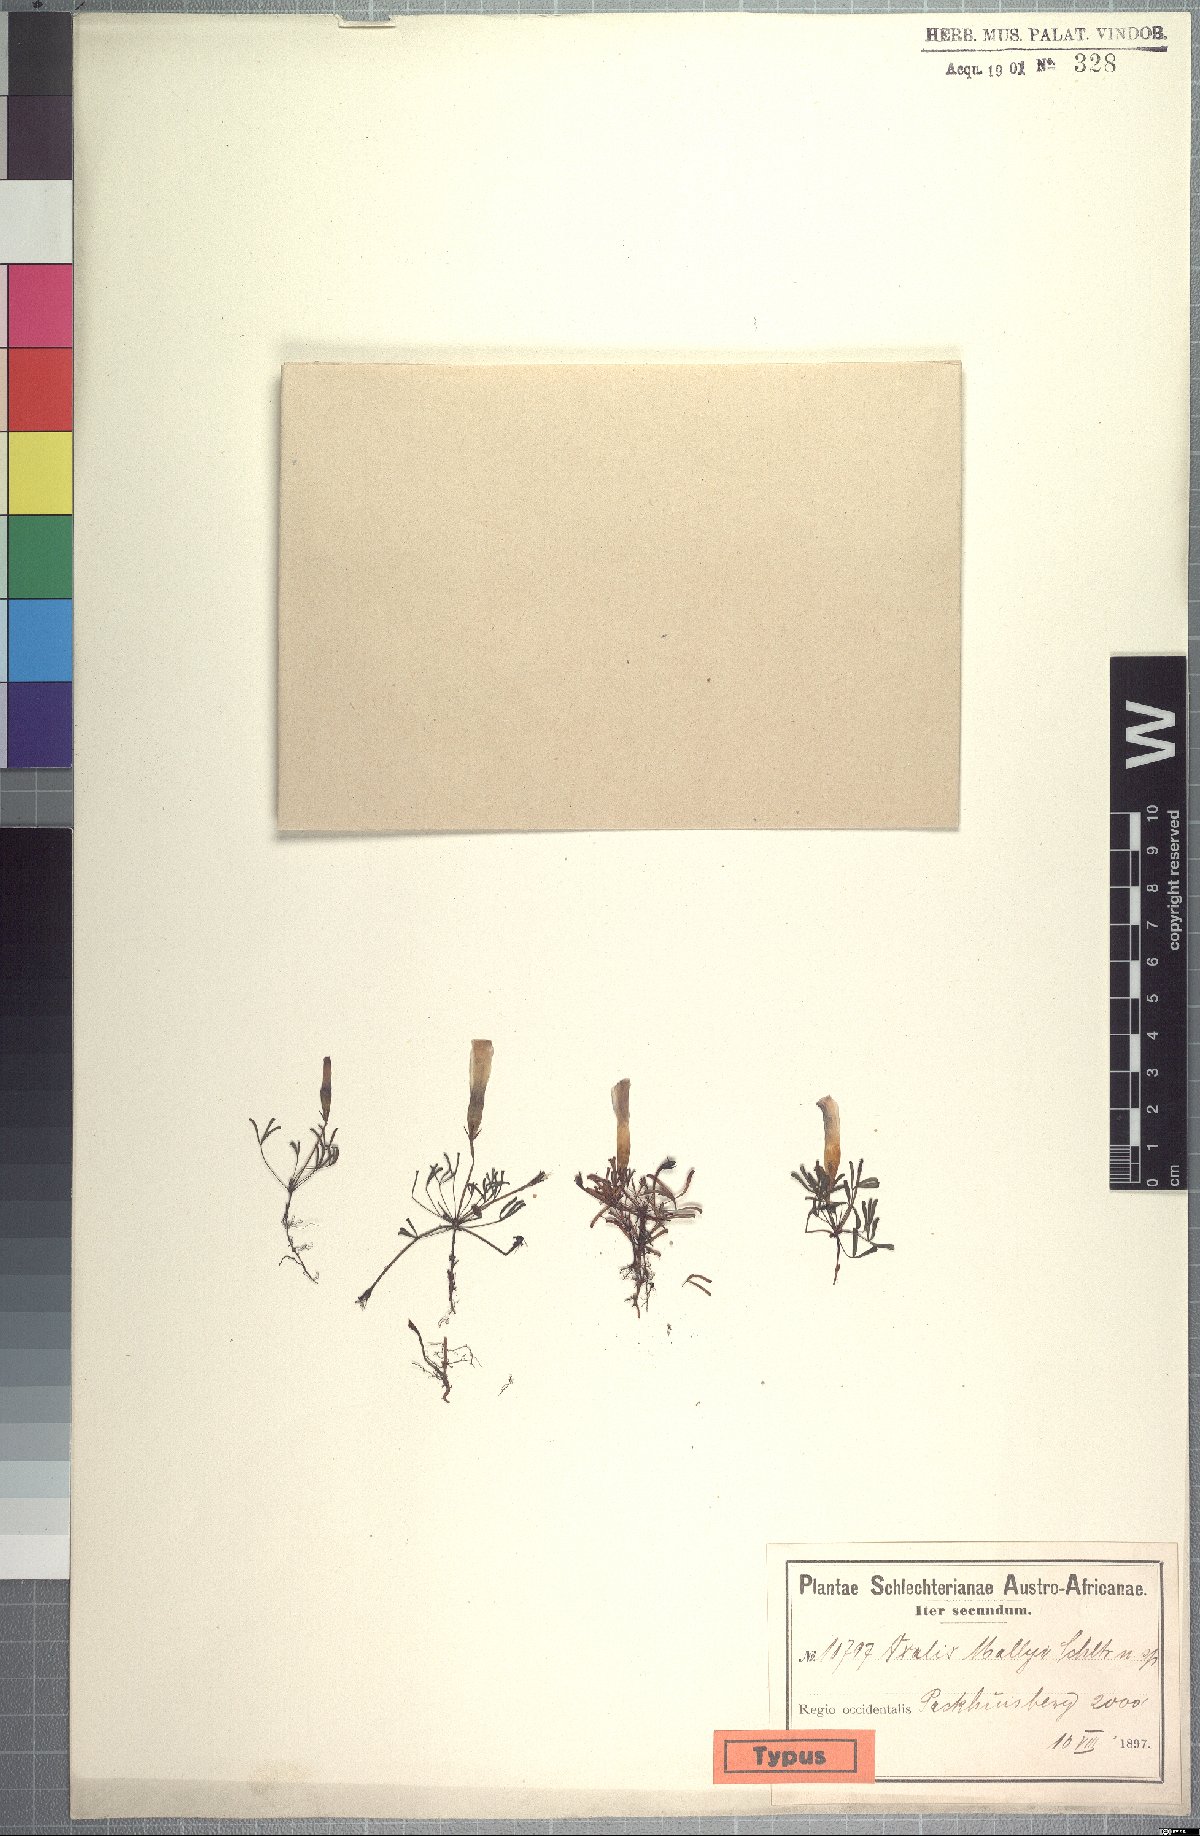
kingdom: Plantae
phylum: Tracheophyta
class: Magnoliopsida
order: Oxalidales
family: Oxalidaceae
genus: Oxalis
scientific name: Oxalis phloxidiflora
